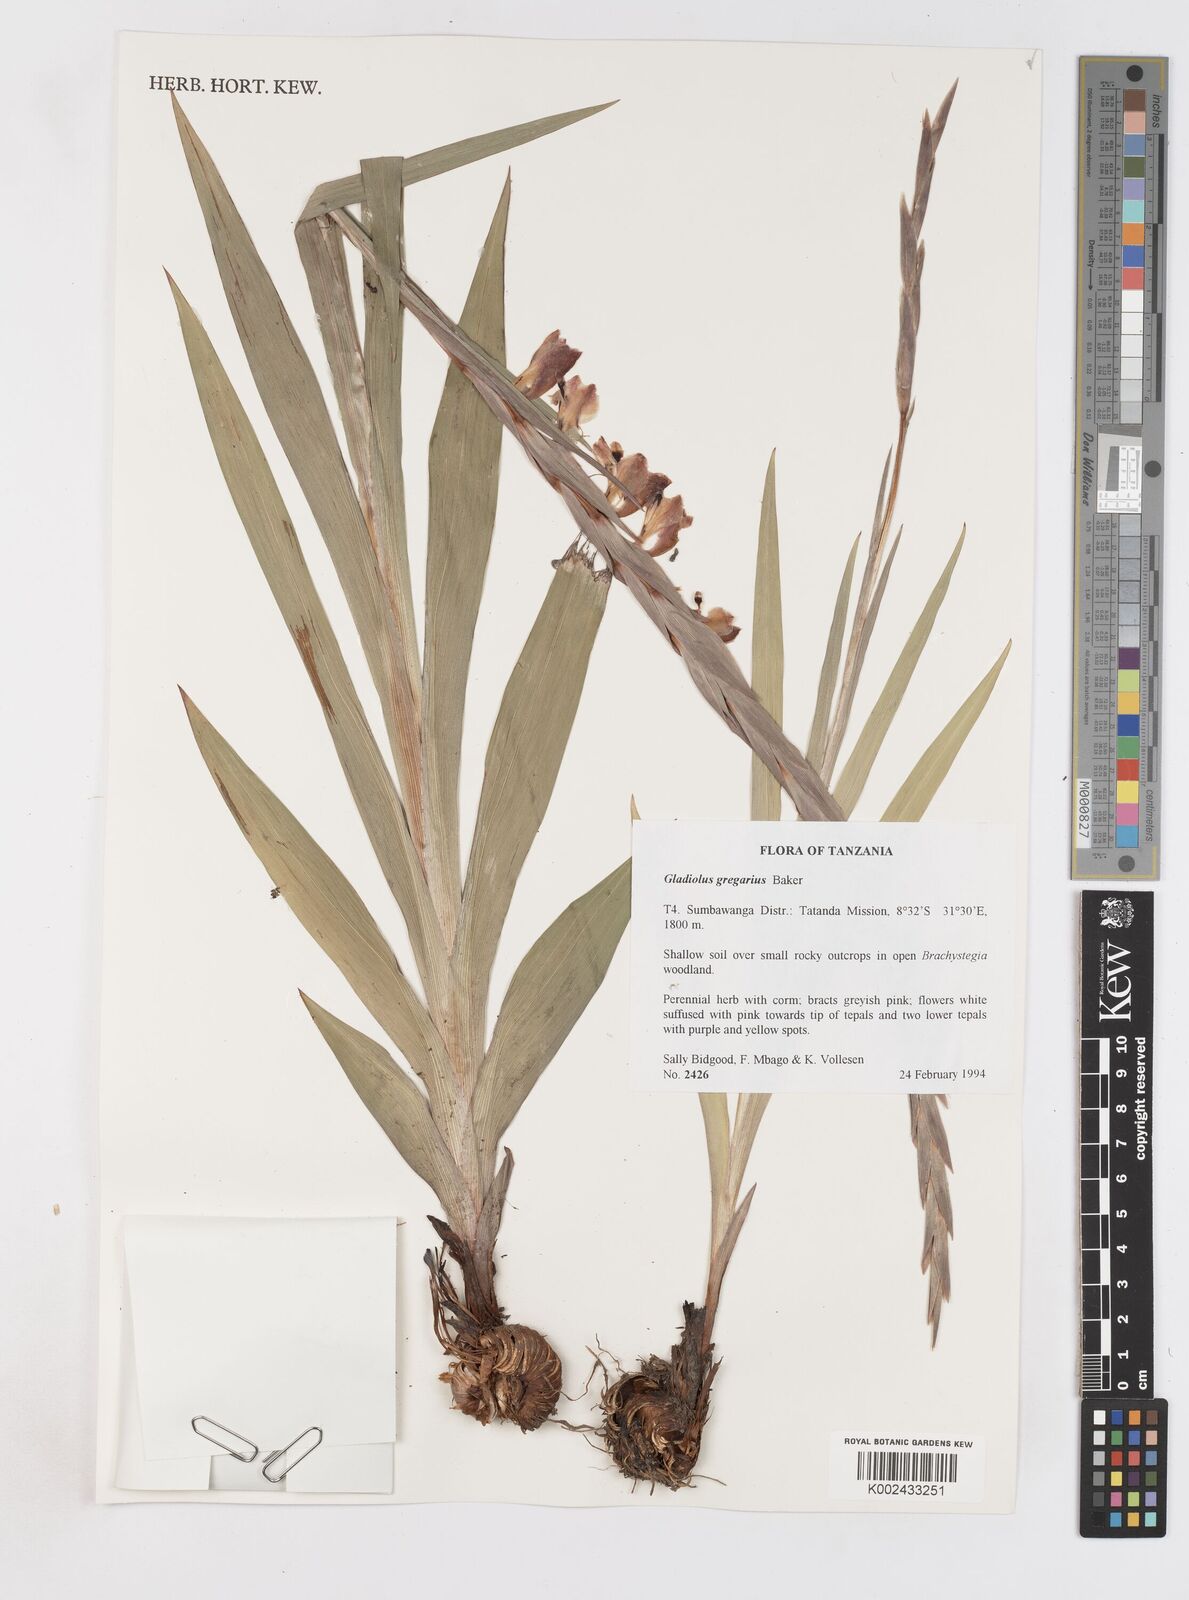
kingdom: Plantae
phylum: Tracheophyta
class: Liliopsida
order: Asparagales
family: Iridaceae
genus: Gladiolus
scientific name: Gladiolus gregarius
